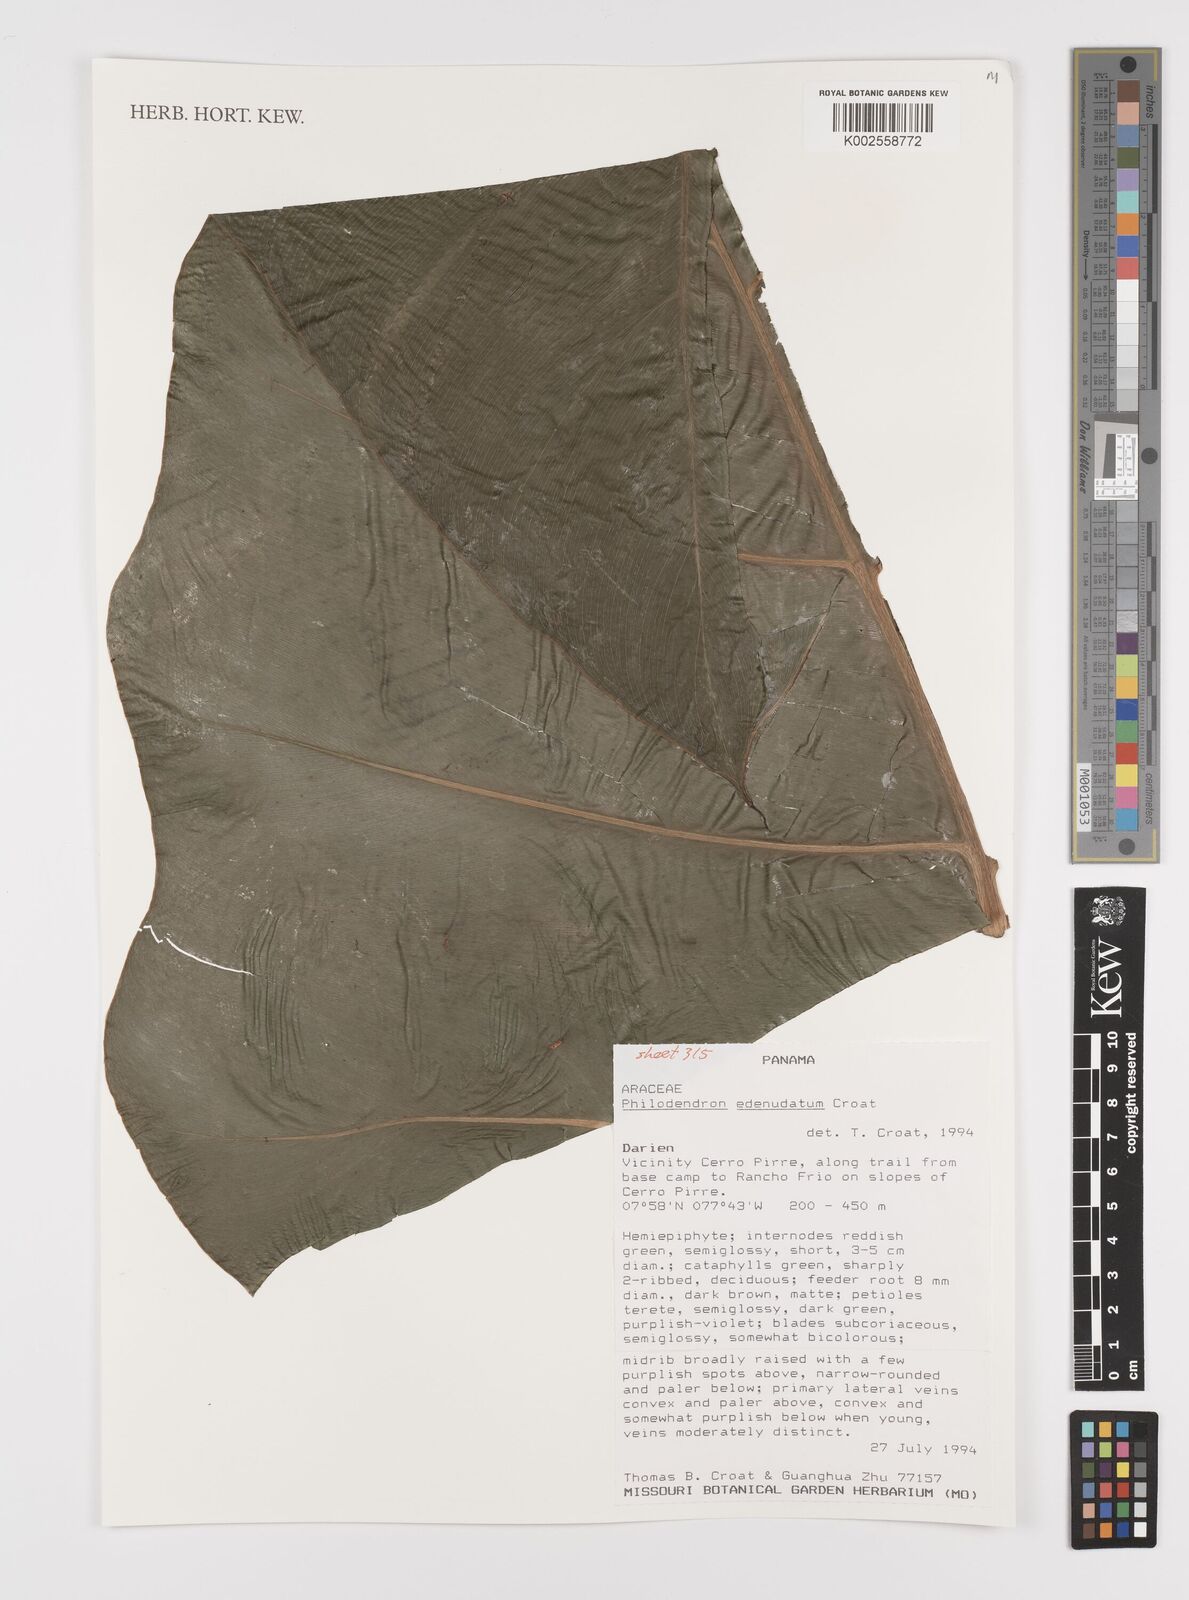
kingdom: Plantae
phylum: Tracheophyta
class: Liliopsida
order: Alismatales
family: Araceae
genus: Philodendron
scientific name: Philodendron edenudatum
